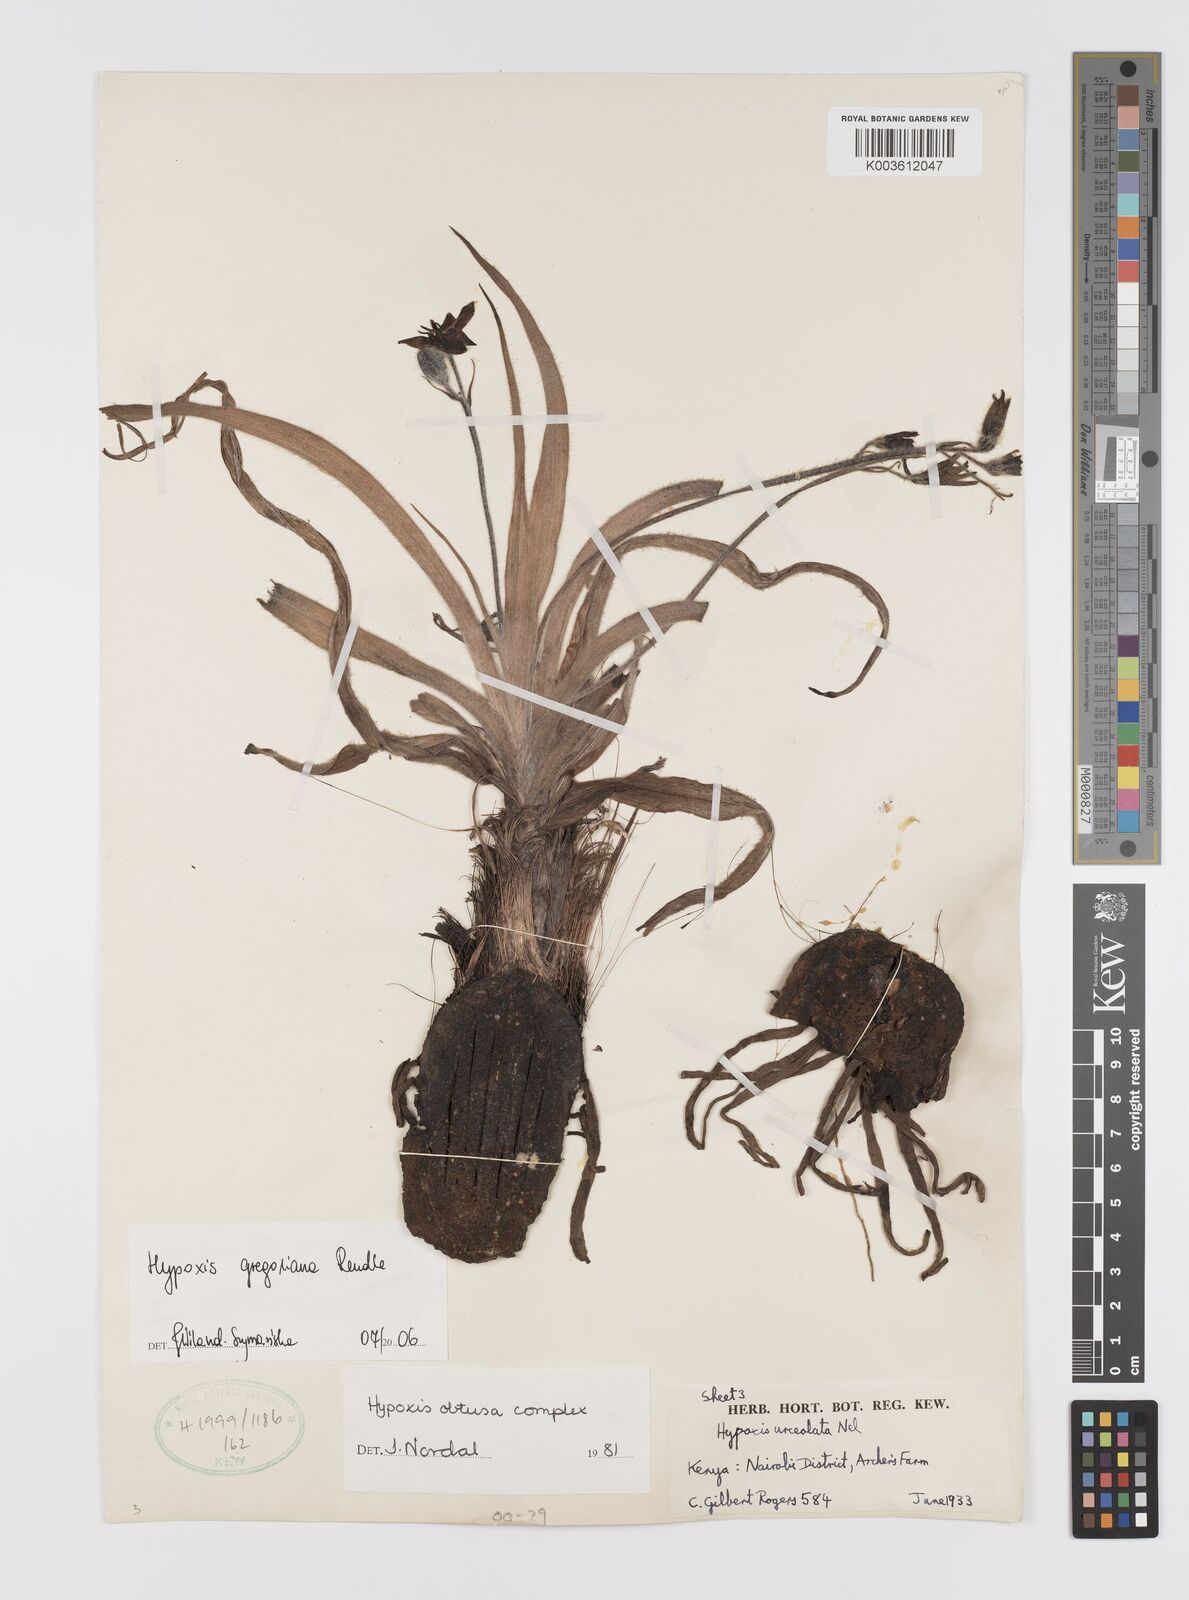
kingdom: Plantae
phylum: Tracheophyta
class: Liliopsida
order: Asparagales
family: Hypoxidaceae
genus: Hypoxis
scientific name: Hypoxis gregoriana
